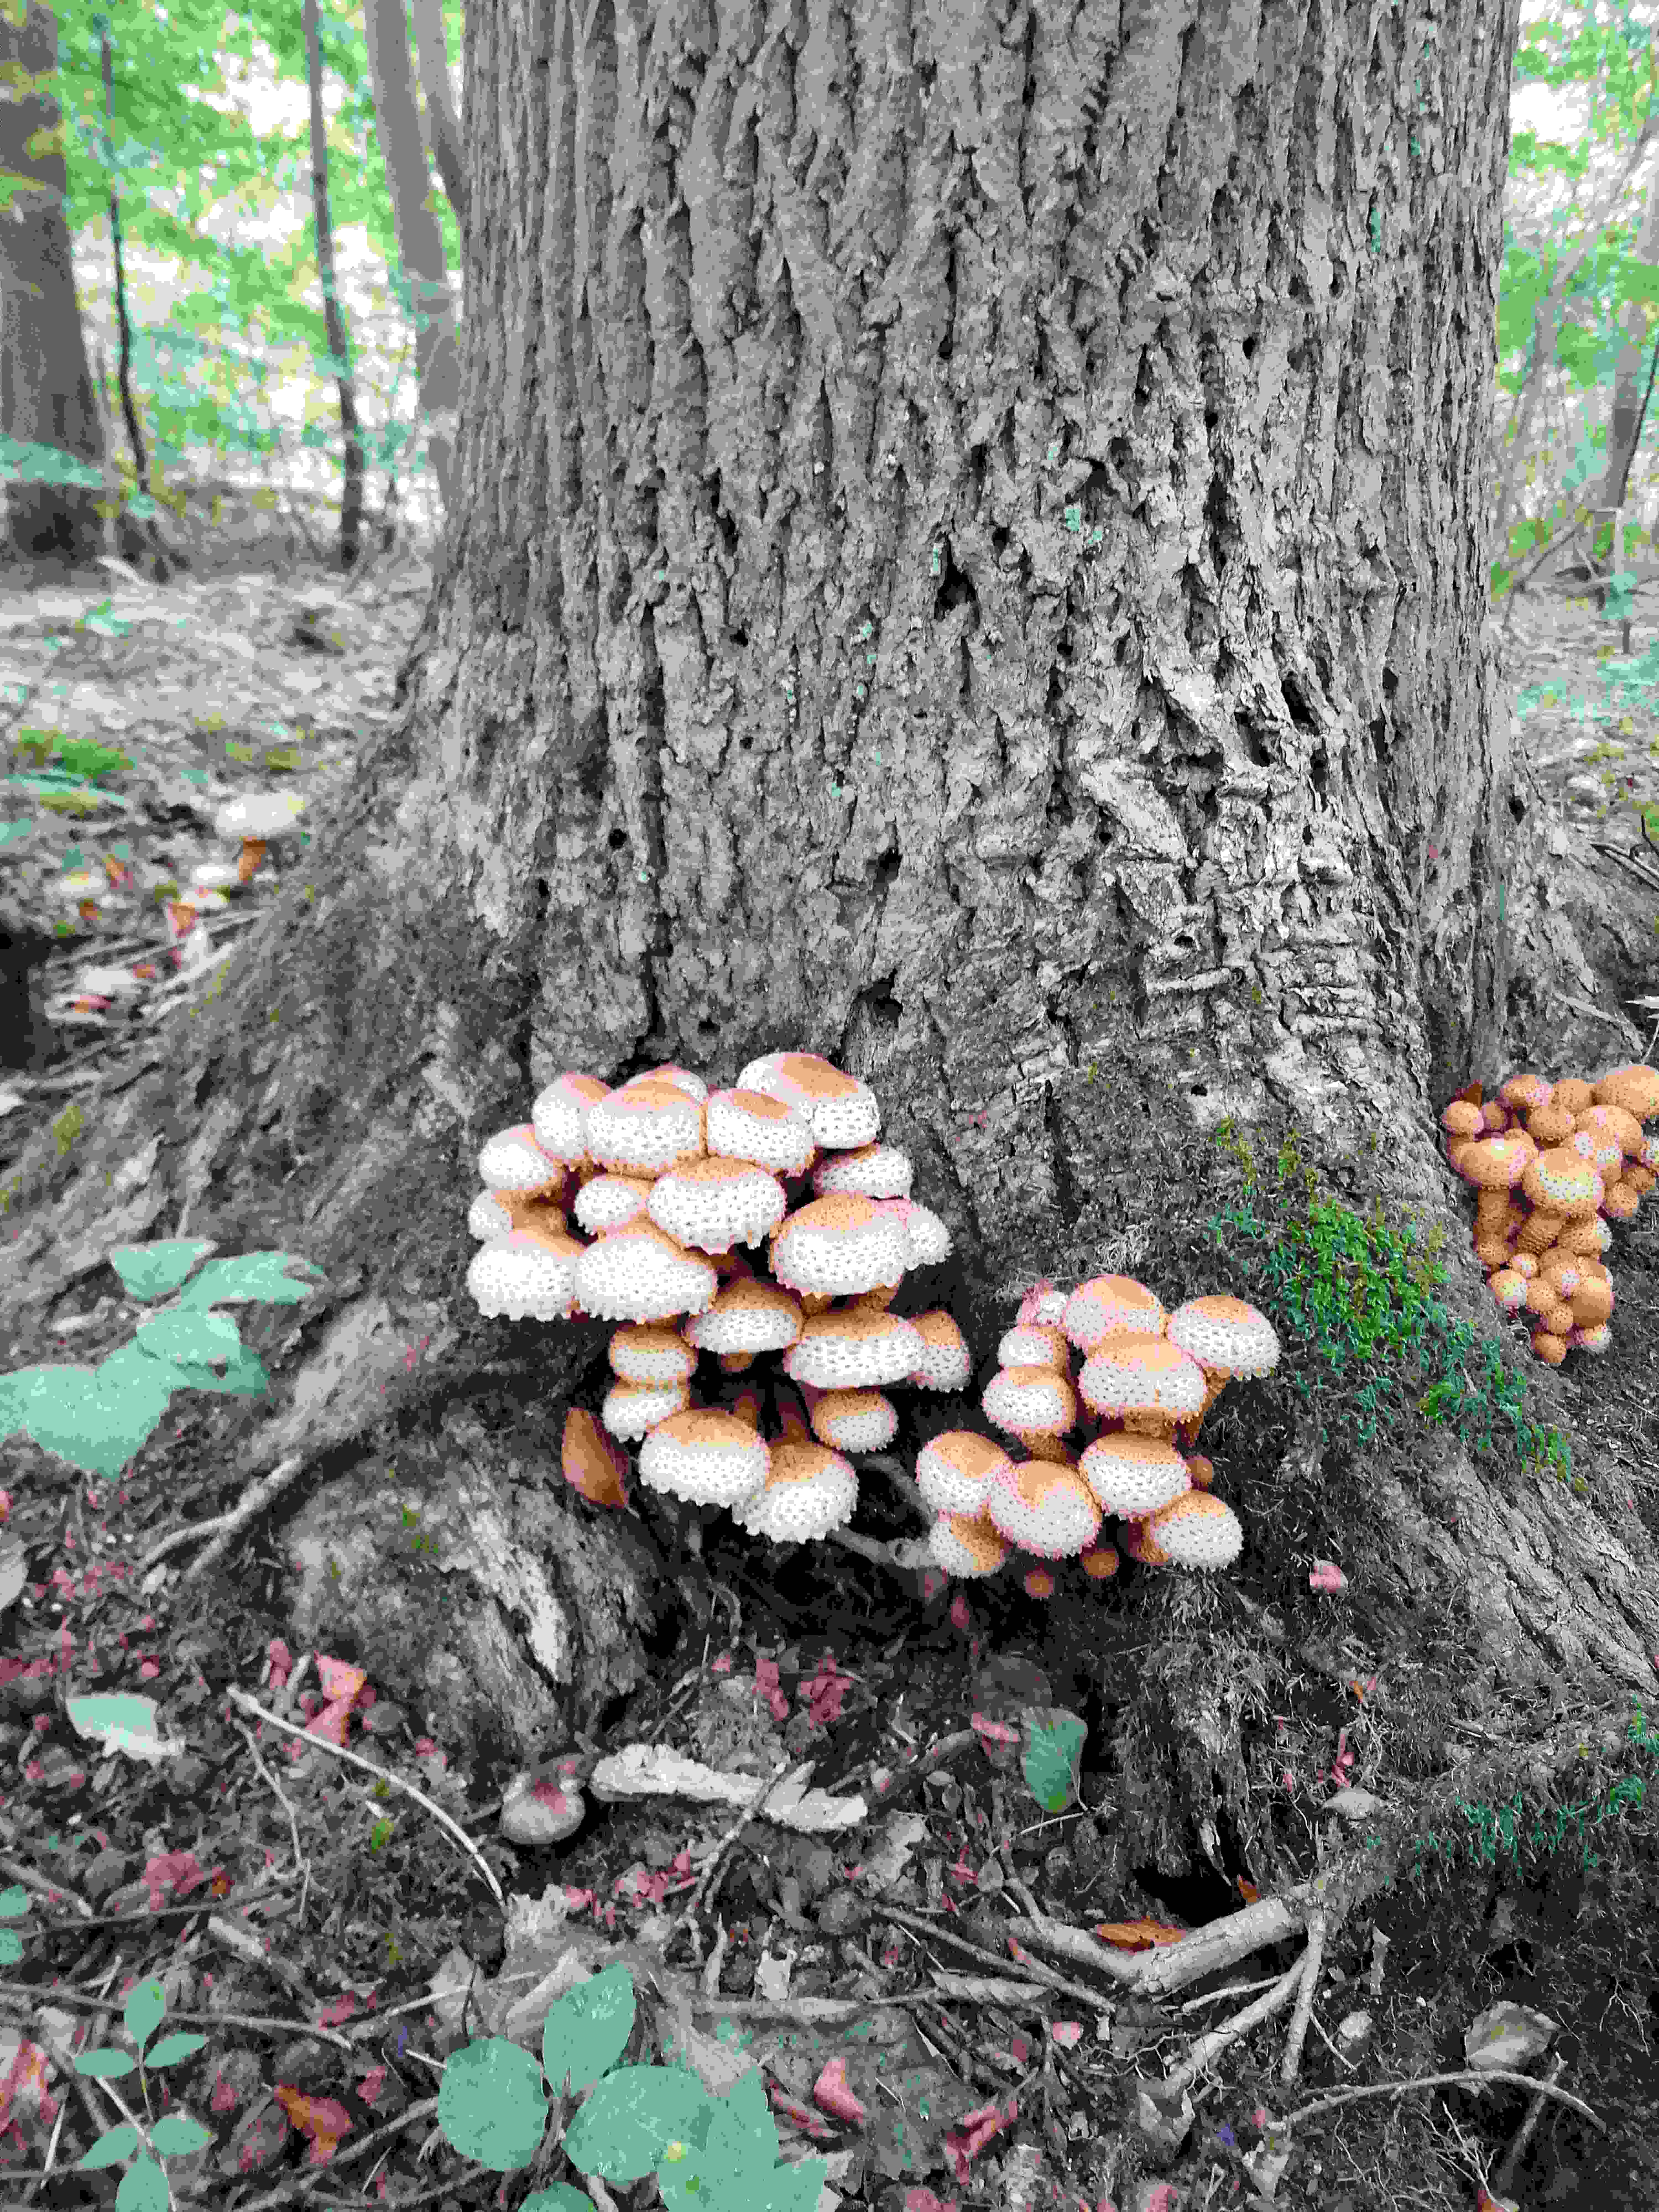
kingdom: Fungi
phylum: Basidiomycota
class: Agaricomycetes
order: Agaricales
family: Strophariaceae
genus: Pholiota
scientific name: Pholiota squarrosa
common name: krumskællet skælhat
